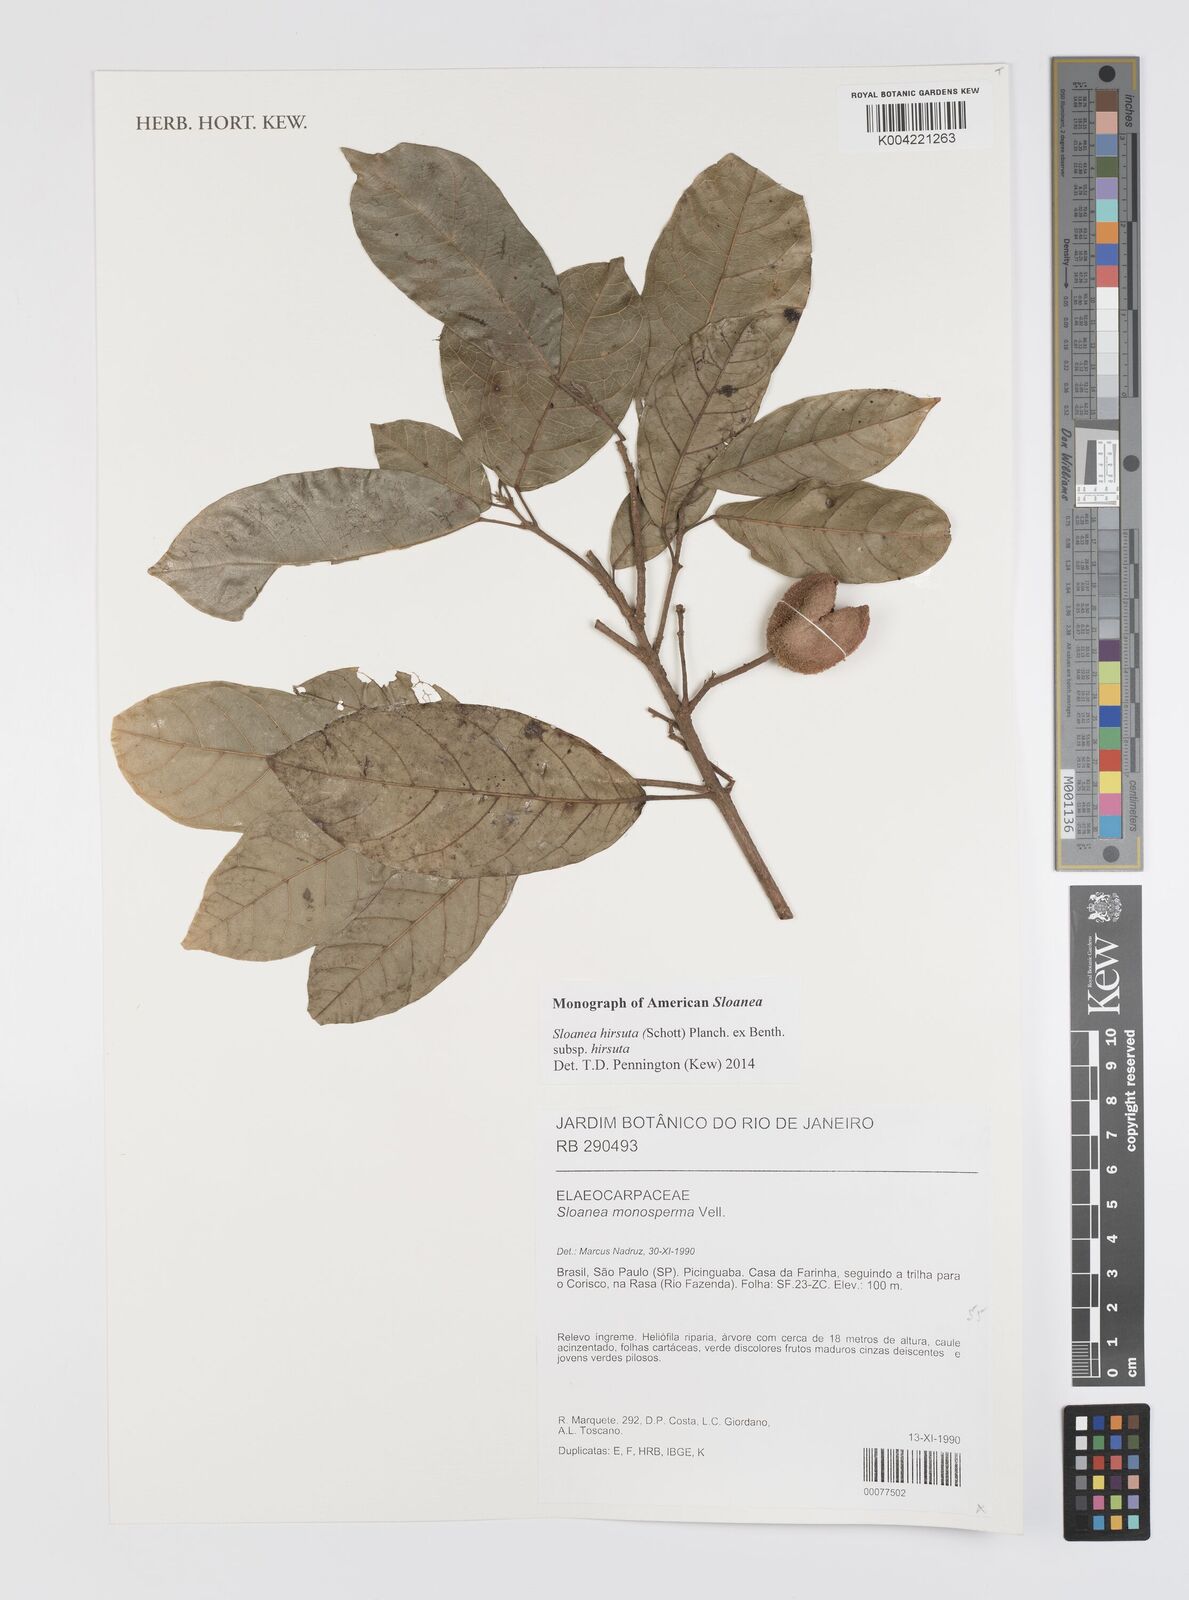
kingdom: Plantae
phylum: Tracheophyta
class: Magnoliopsida
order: Oxalidales
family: Elaeocarpaceae
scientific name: Elaeocarpaceae
